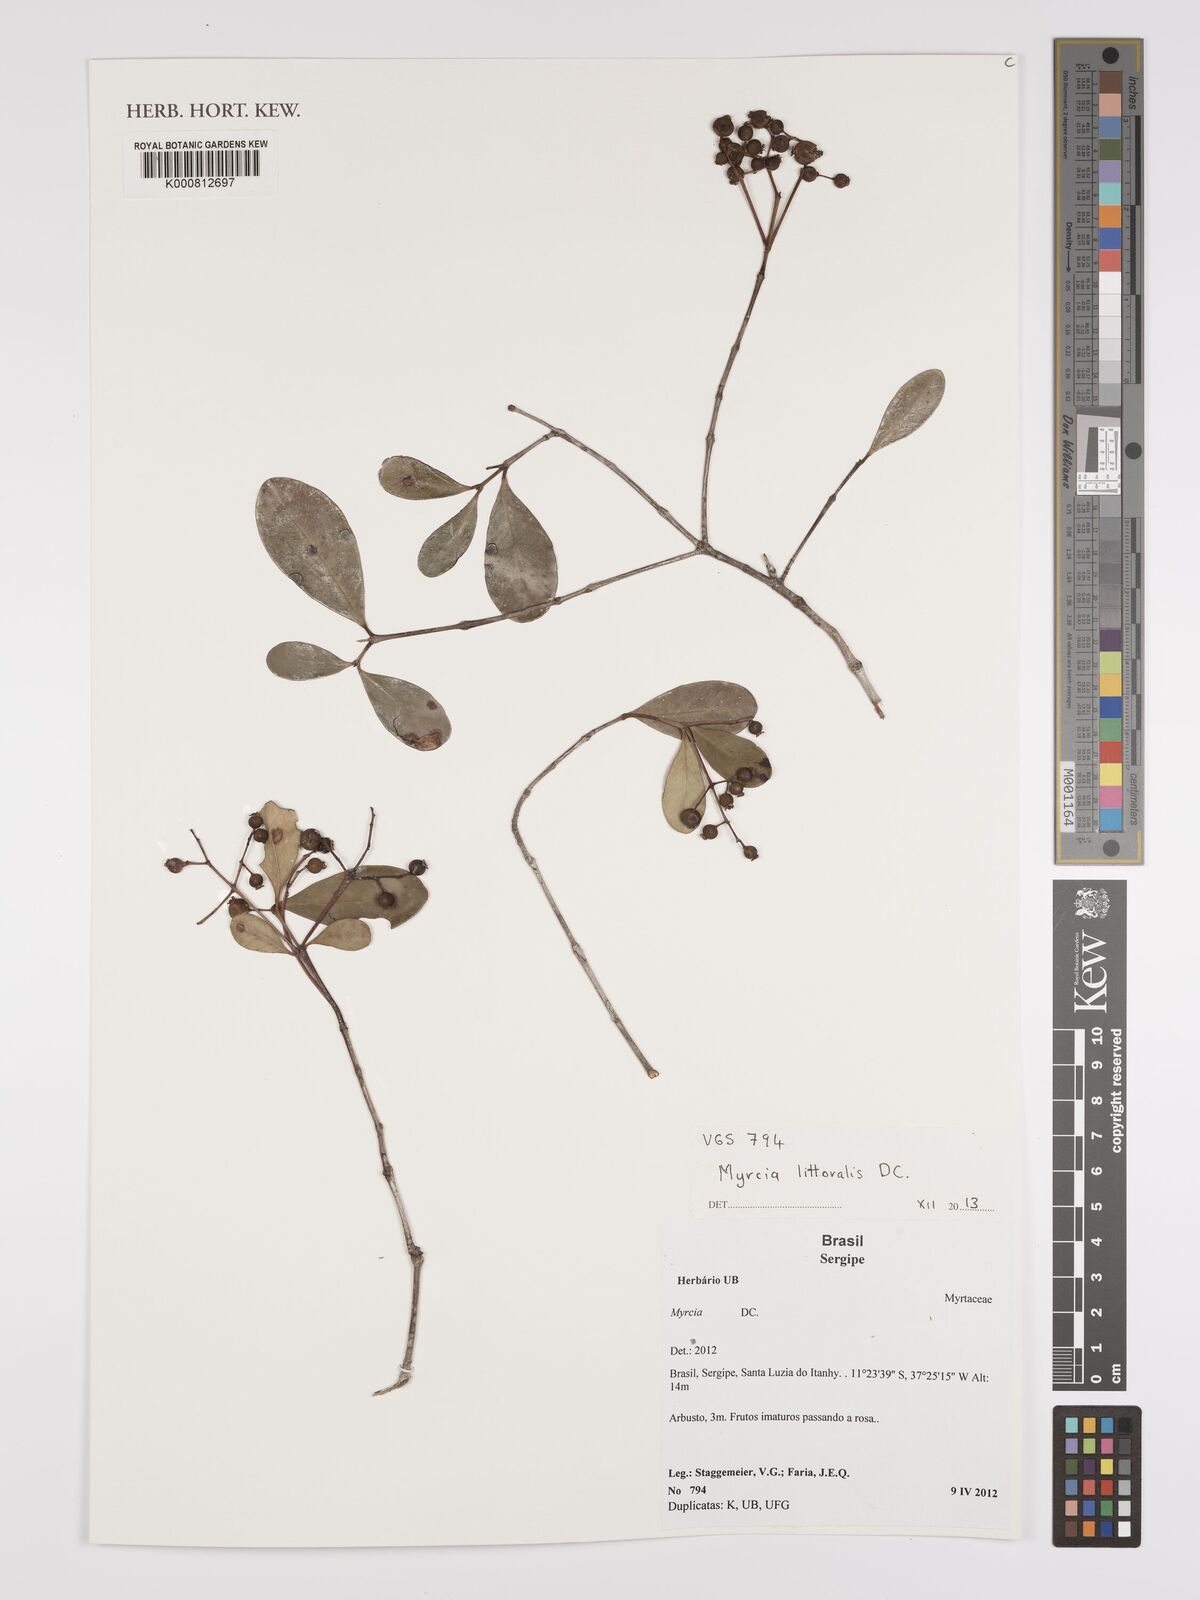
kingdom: Plantae
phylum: Tracheophyta
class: Magnoliopsida
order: Myrtales
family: Myrtaceae
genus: Myrcia
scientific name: Myrcia littoralis
